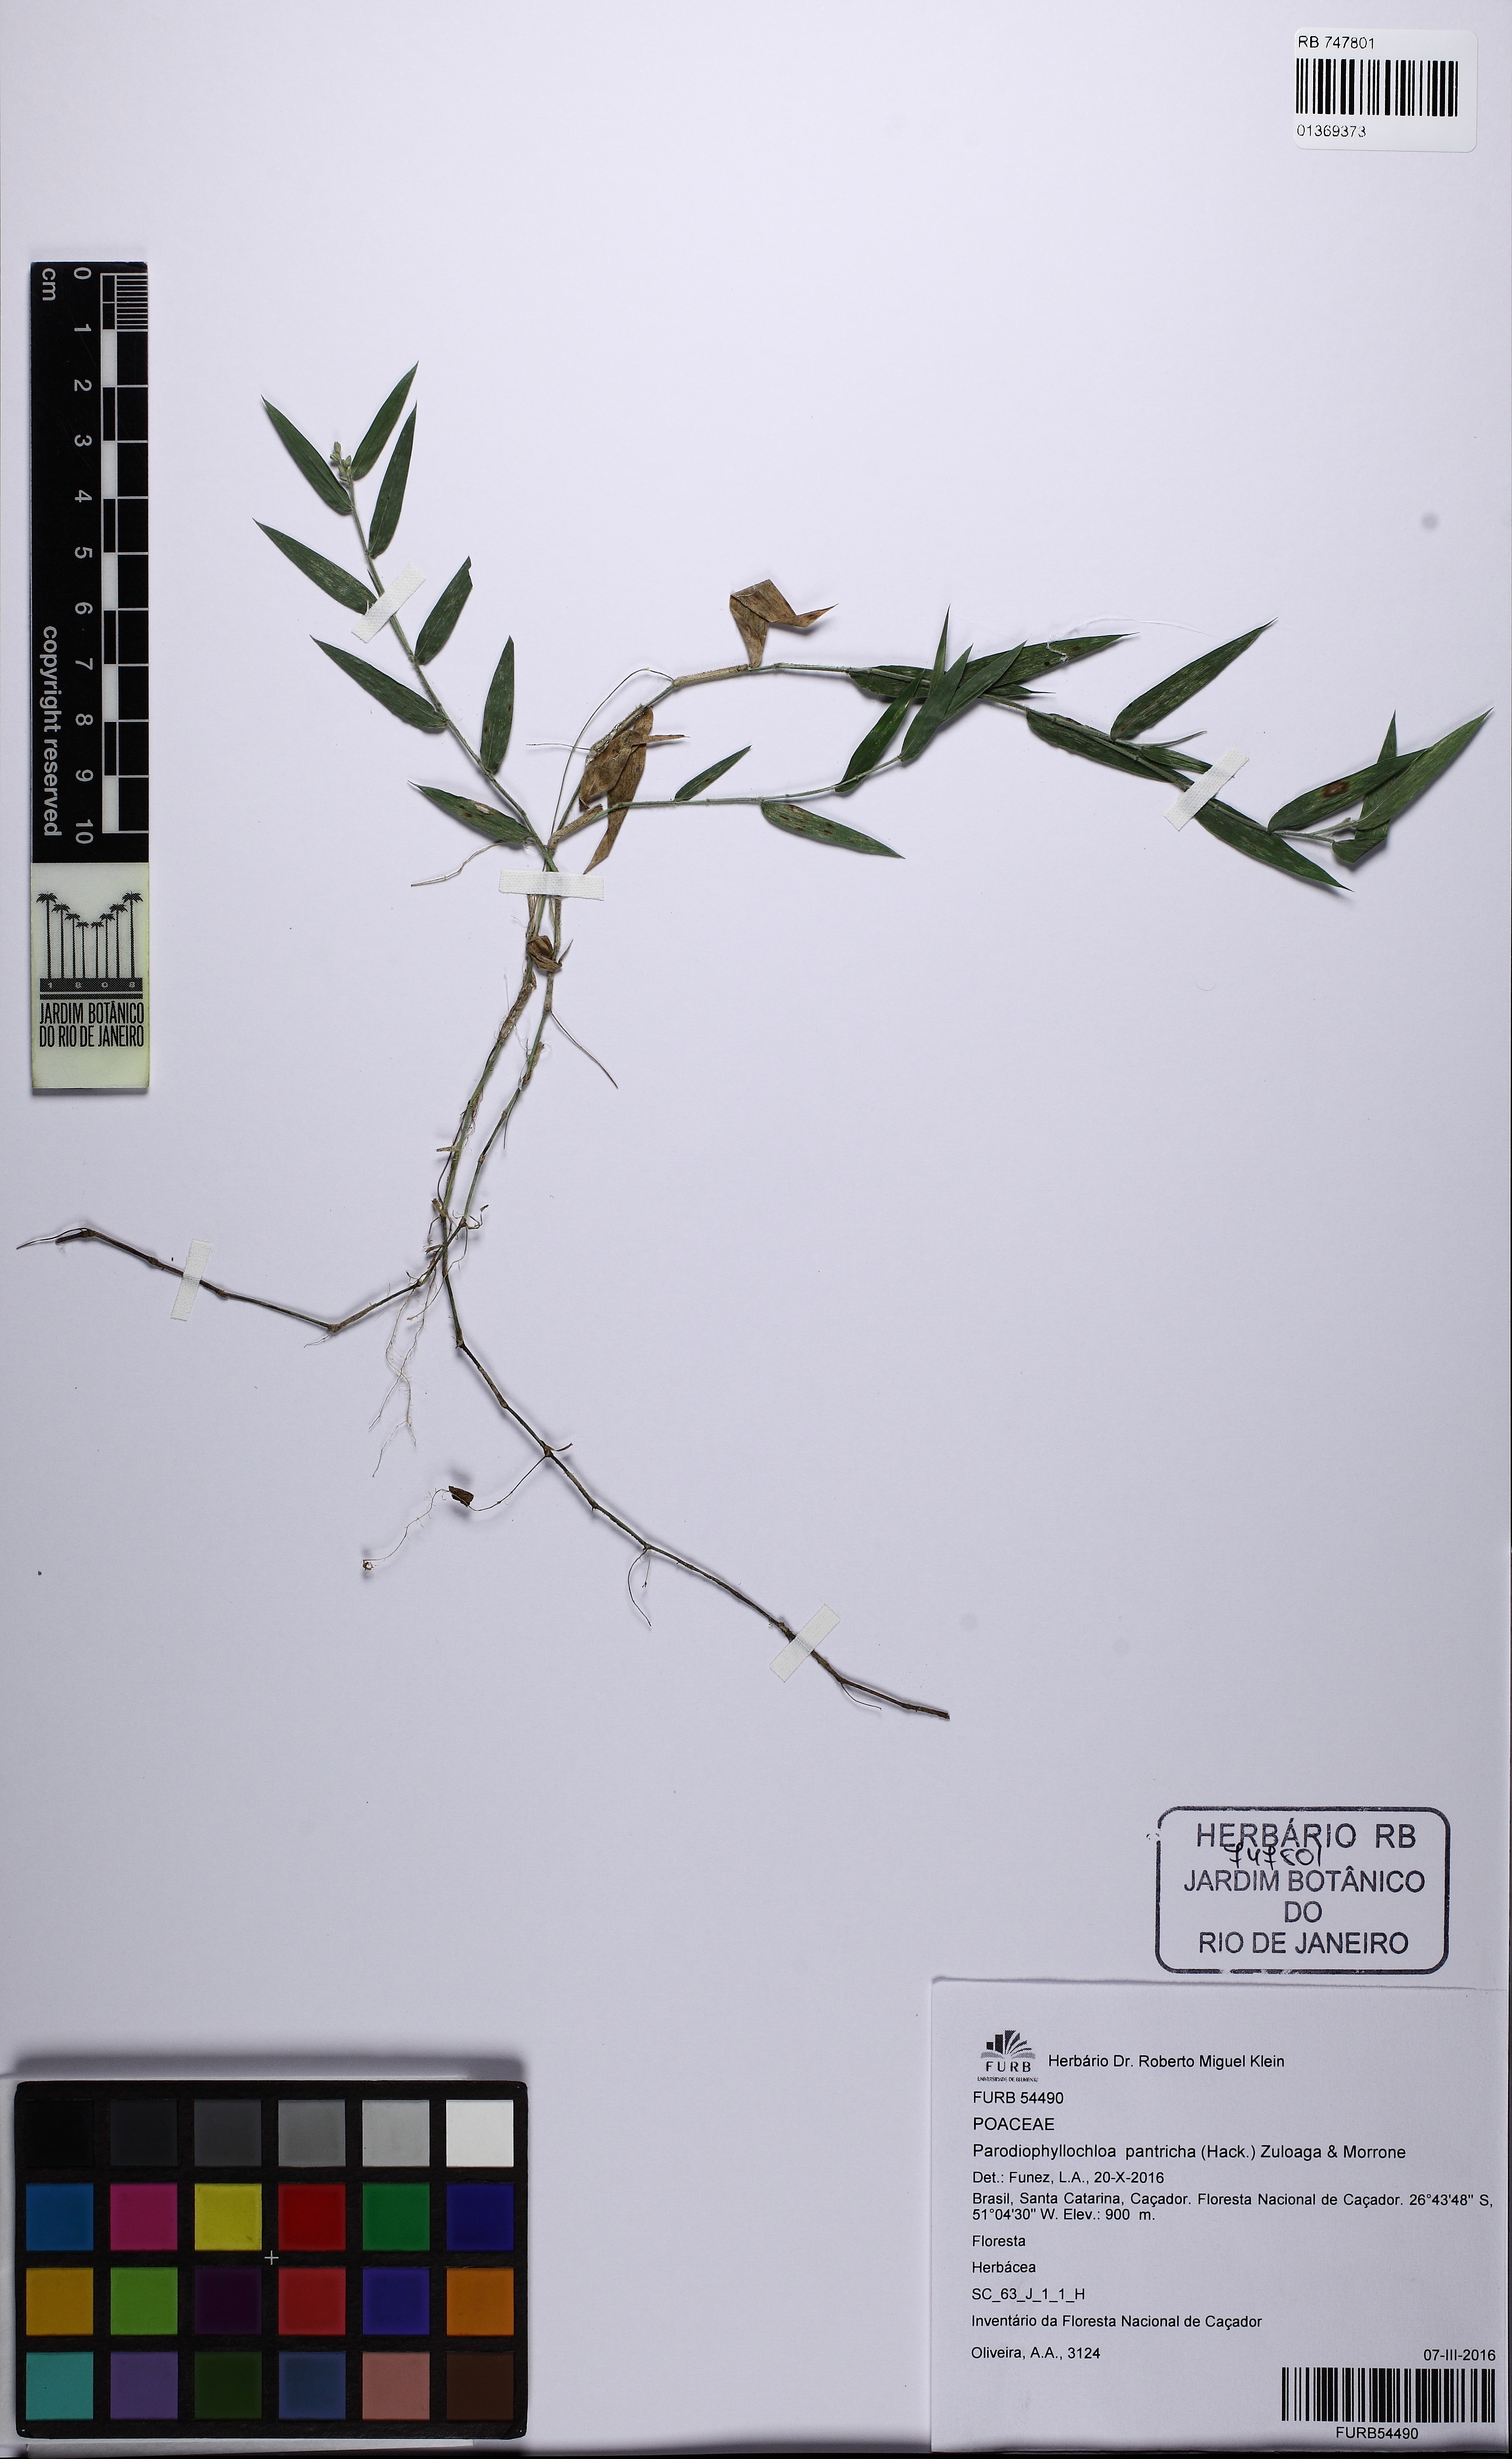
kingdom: Plantae
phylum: Tracheophyta
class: Liliopsida
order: Poales
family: Poaceae
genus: Parodiophyllochloa
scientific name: Parodiophyllochloa pantricha
